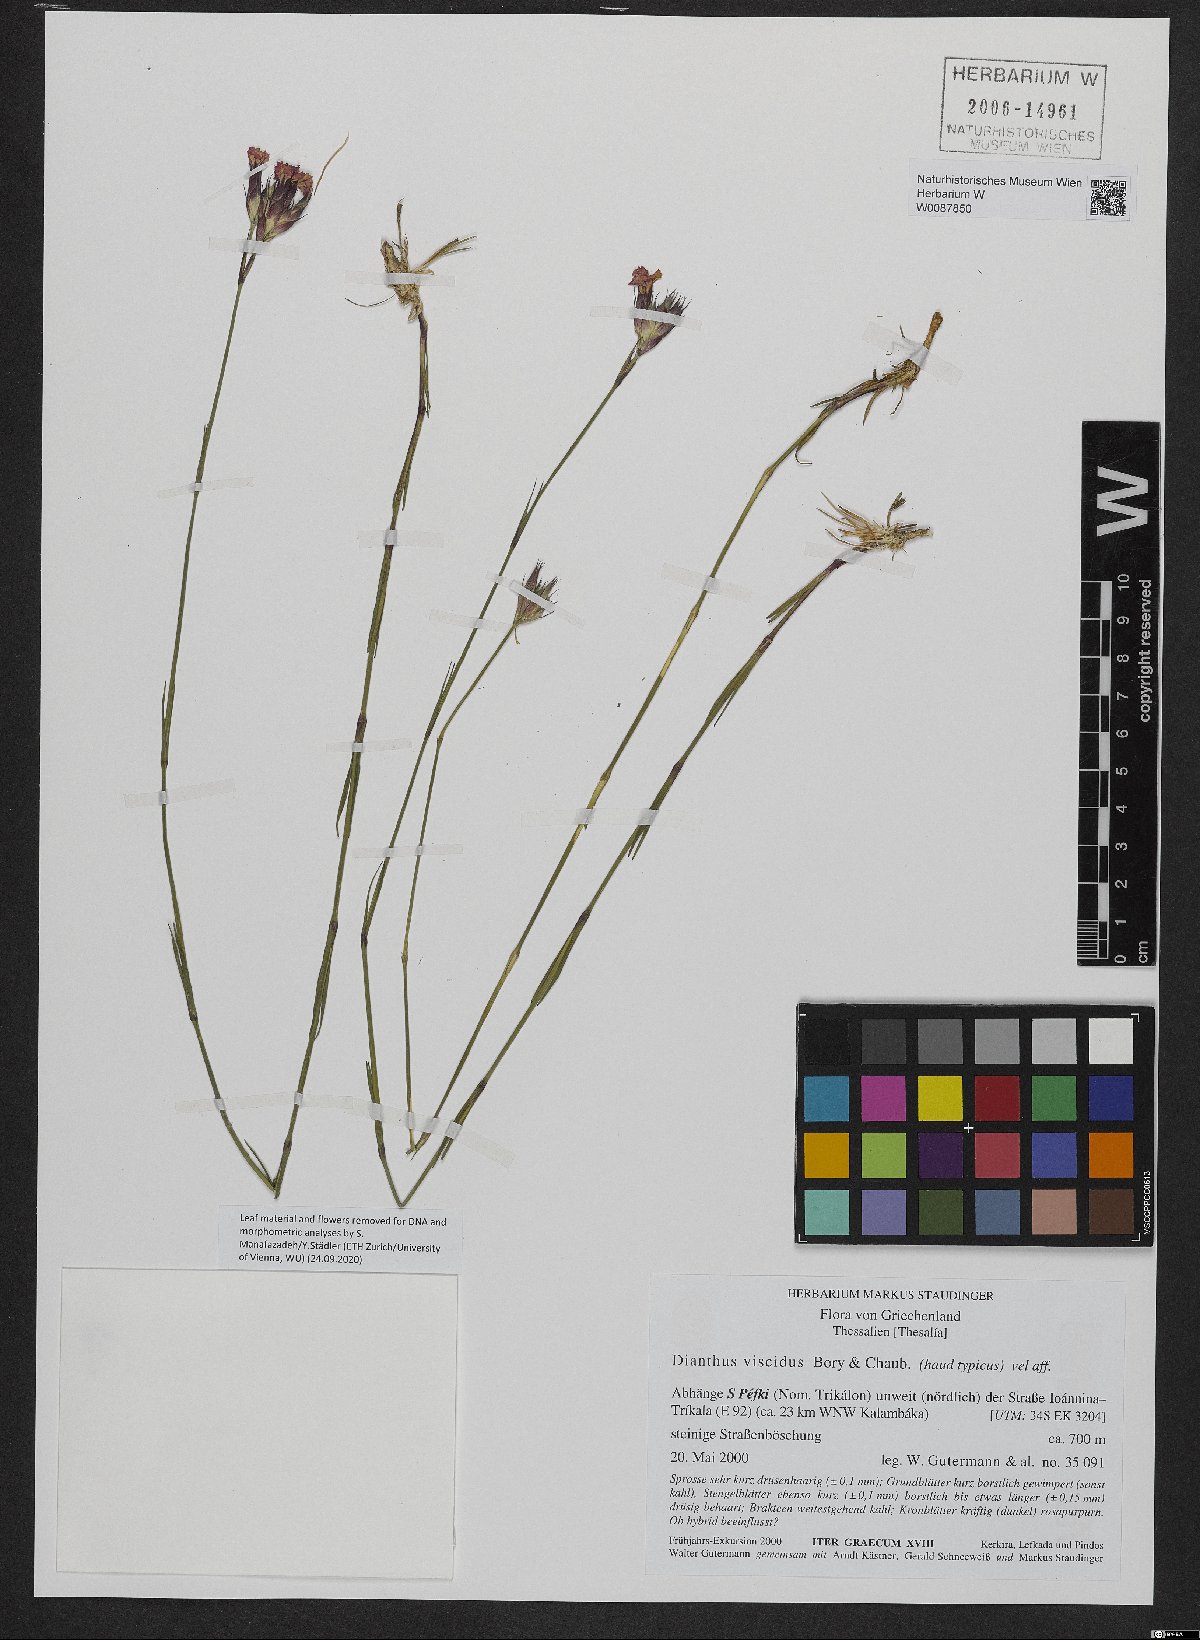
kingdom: Plantae
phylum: Tracheophyta
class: Magnoliopsida
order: Caryophyllales
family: Caryophyllaceae
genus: Dianthus
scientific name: Dianthus viscidus
